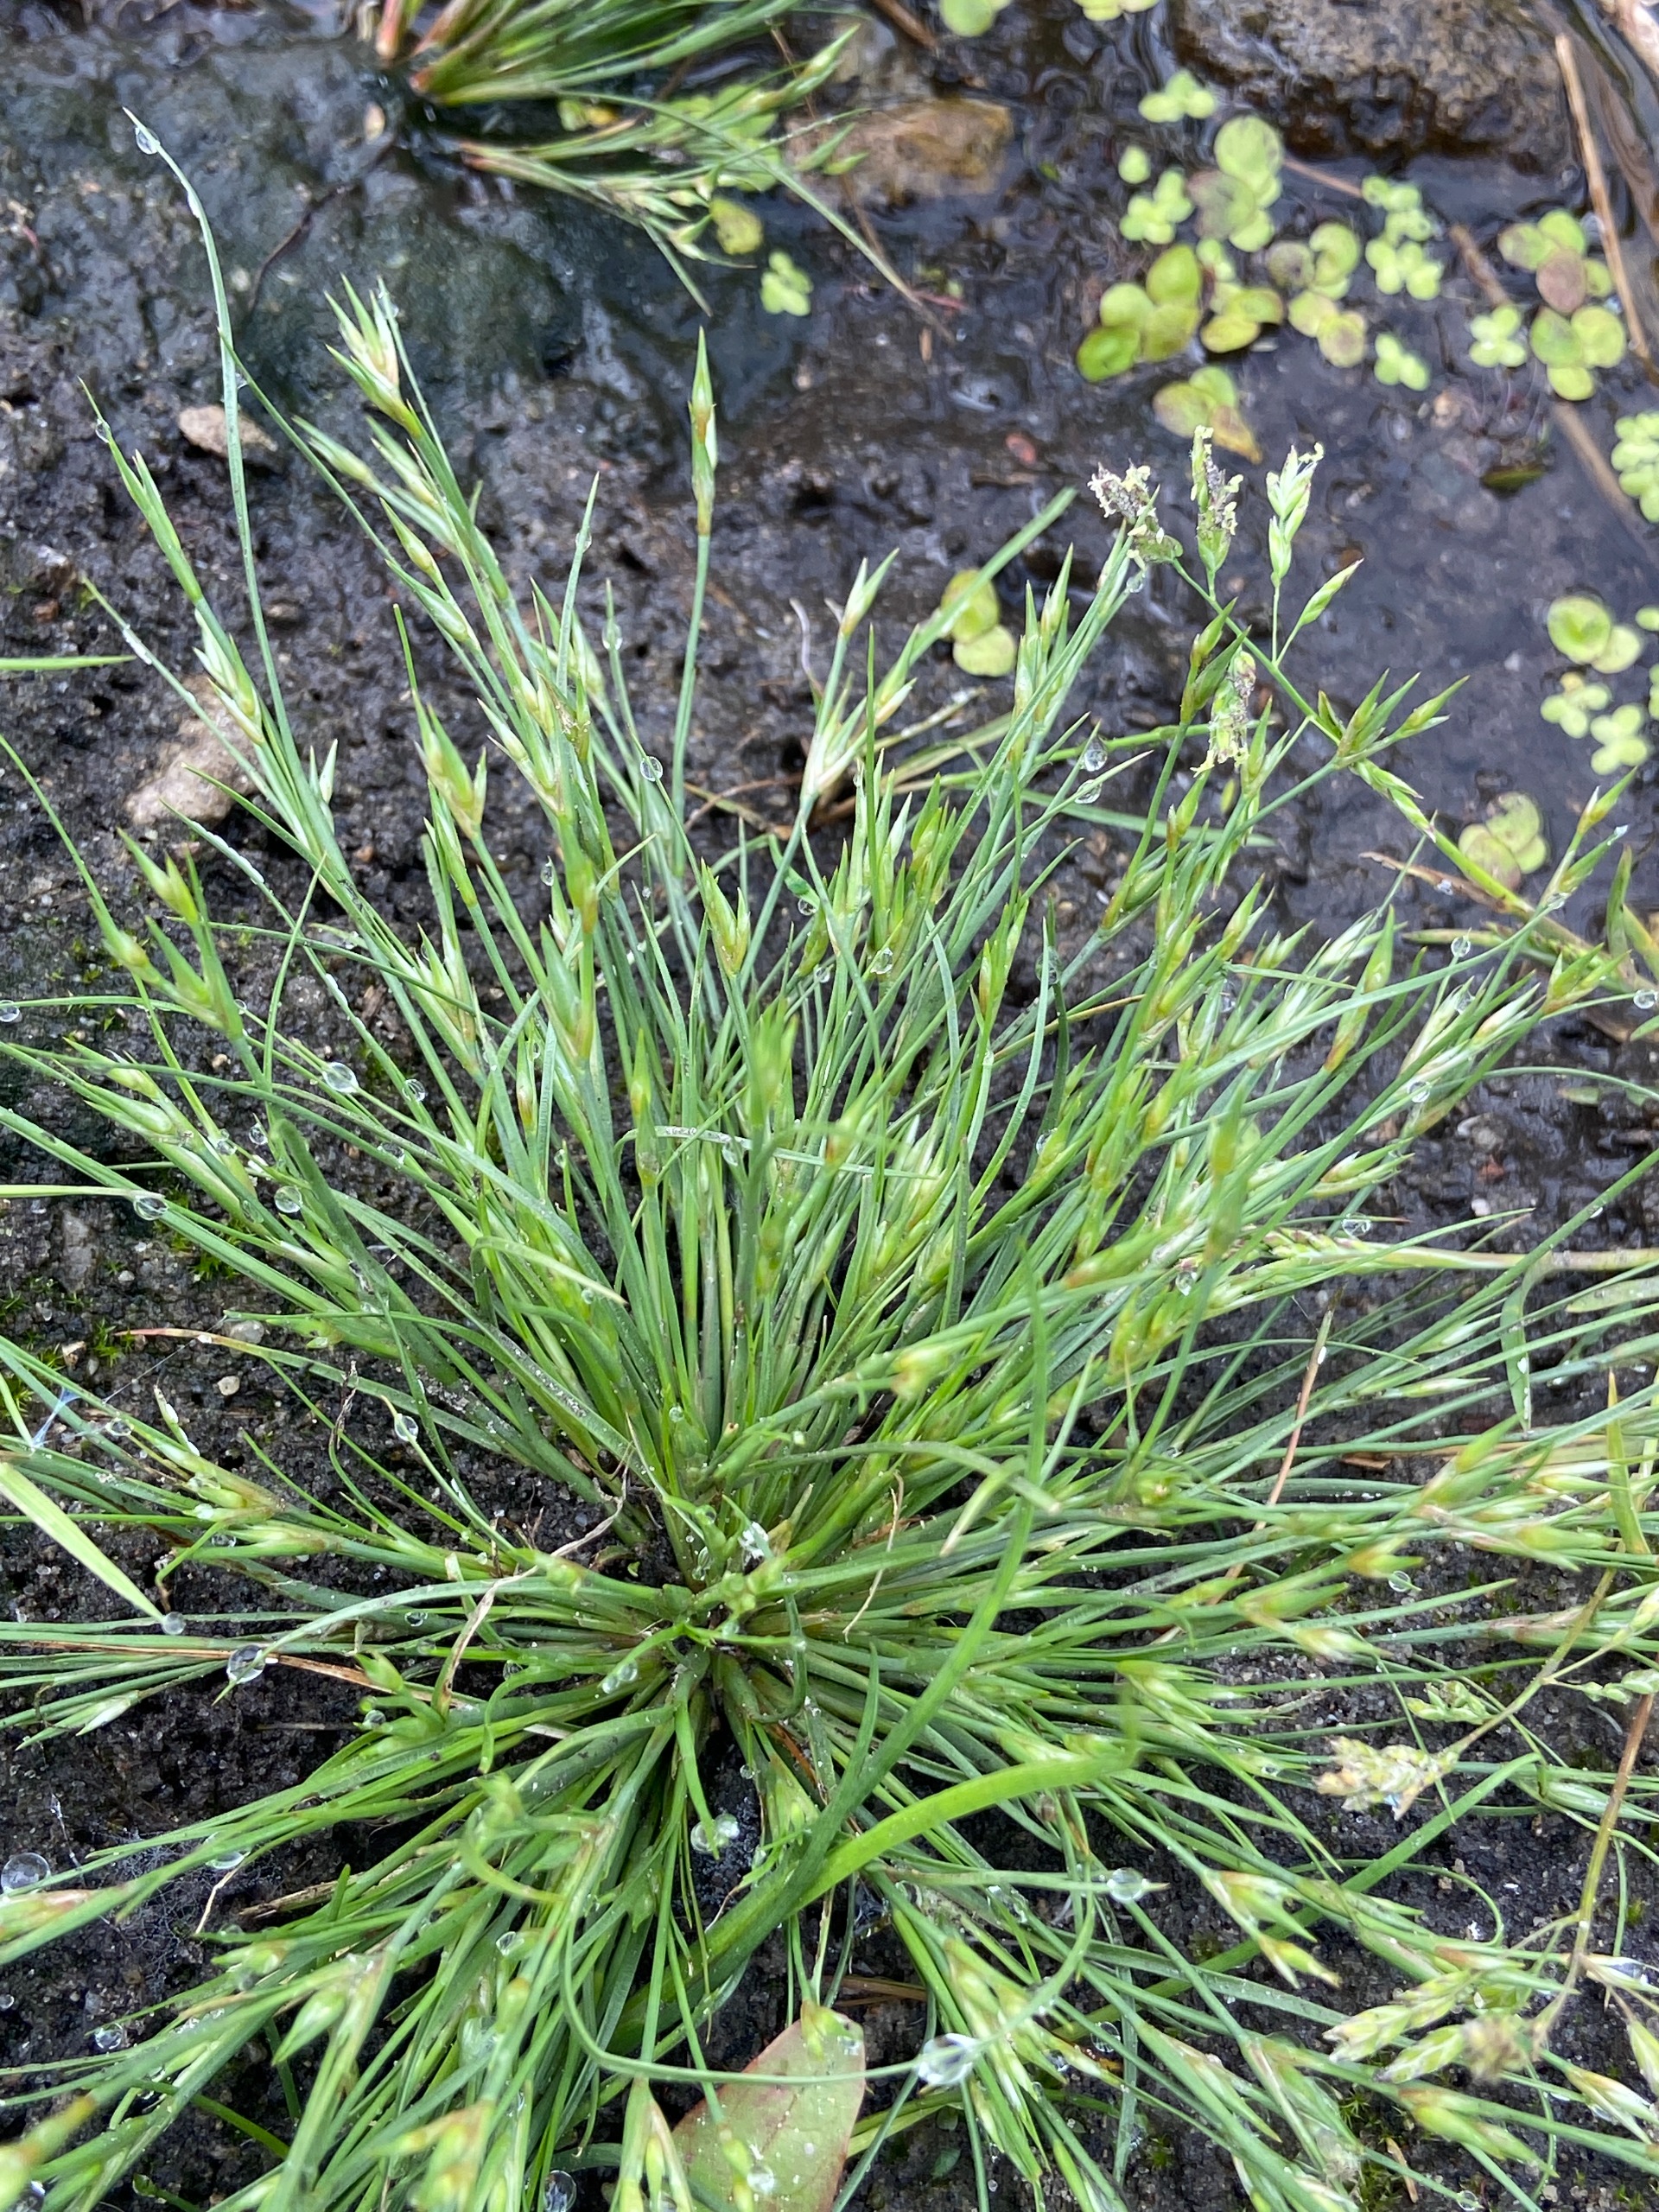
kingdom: Plantae
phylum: Tracheophyta
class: Liliopsida
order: Poales
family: Juncaceae
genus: Juncus
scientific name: Juncus bufonius
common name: Tudse-siv
